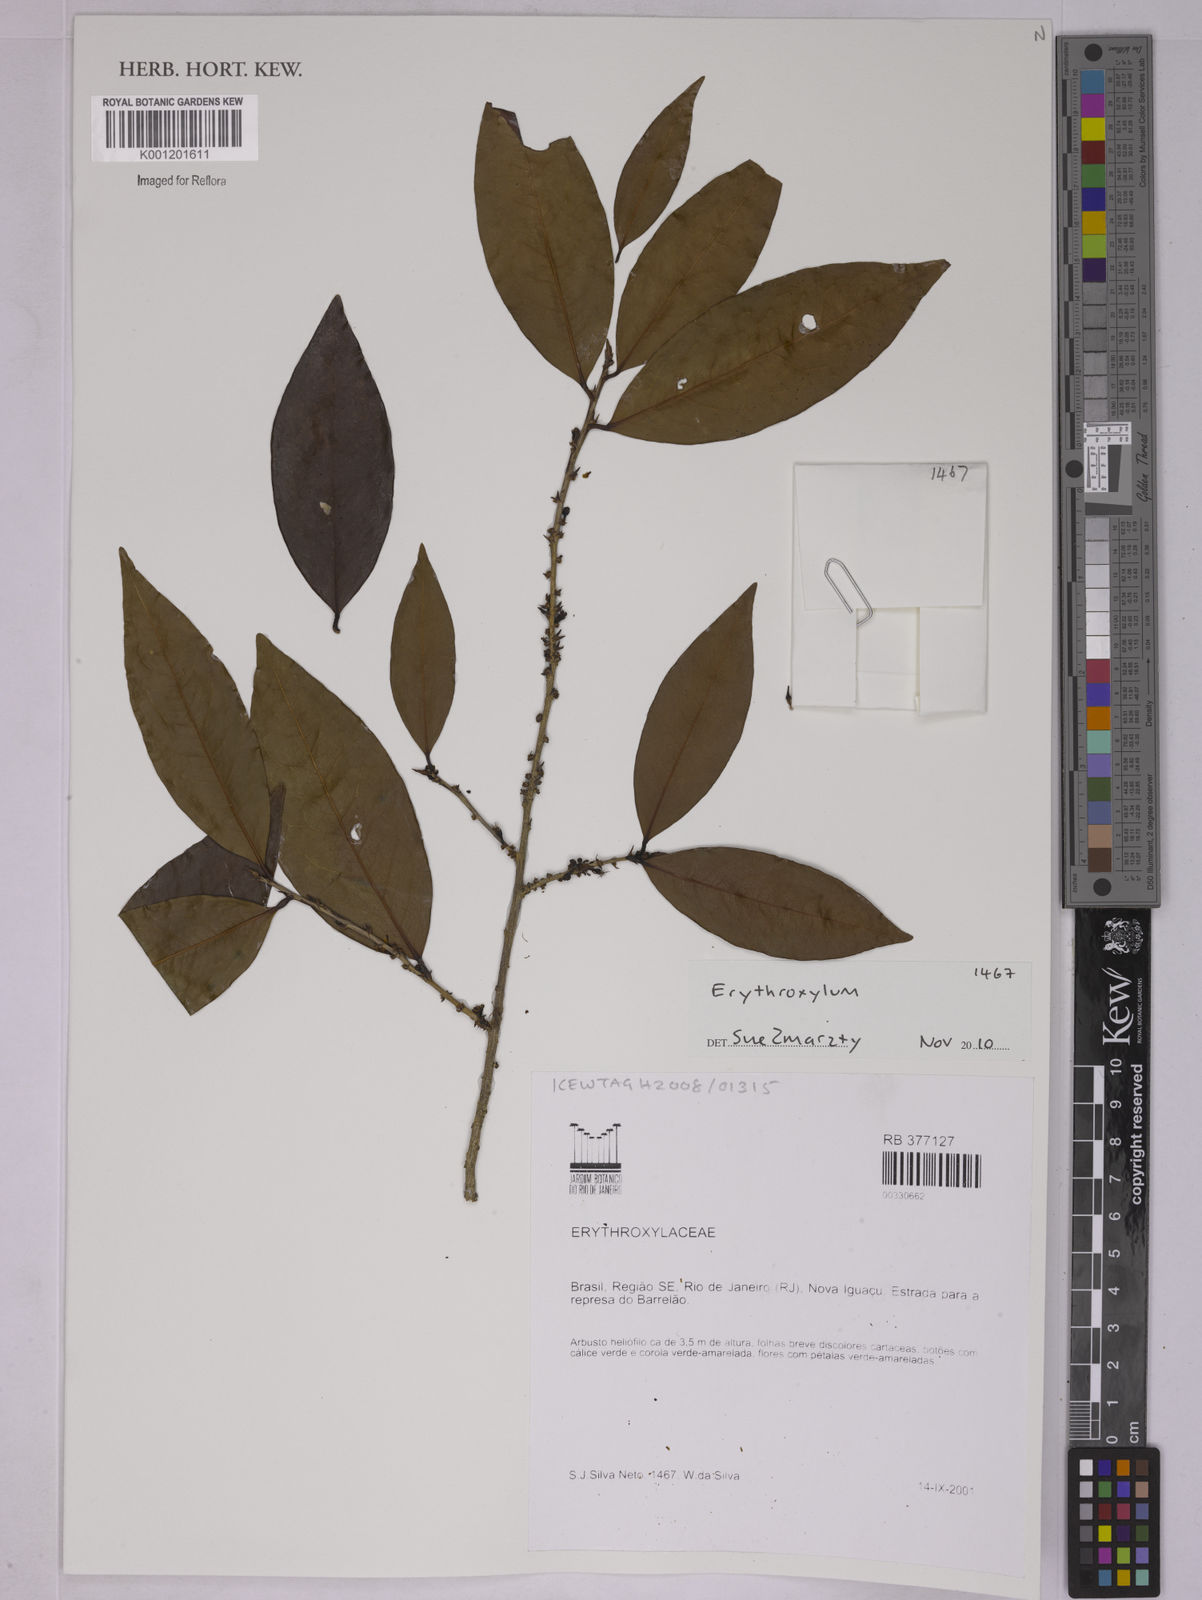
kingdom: Plantae
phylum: Tracheophyta
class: Magnoliopsida
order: Malpighiales
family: Erythroxylaceae
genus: Erythroxylum
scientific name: Erythroxylum
